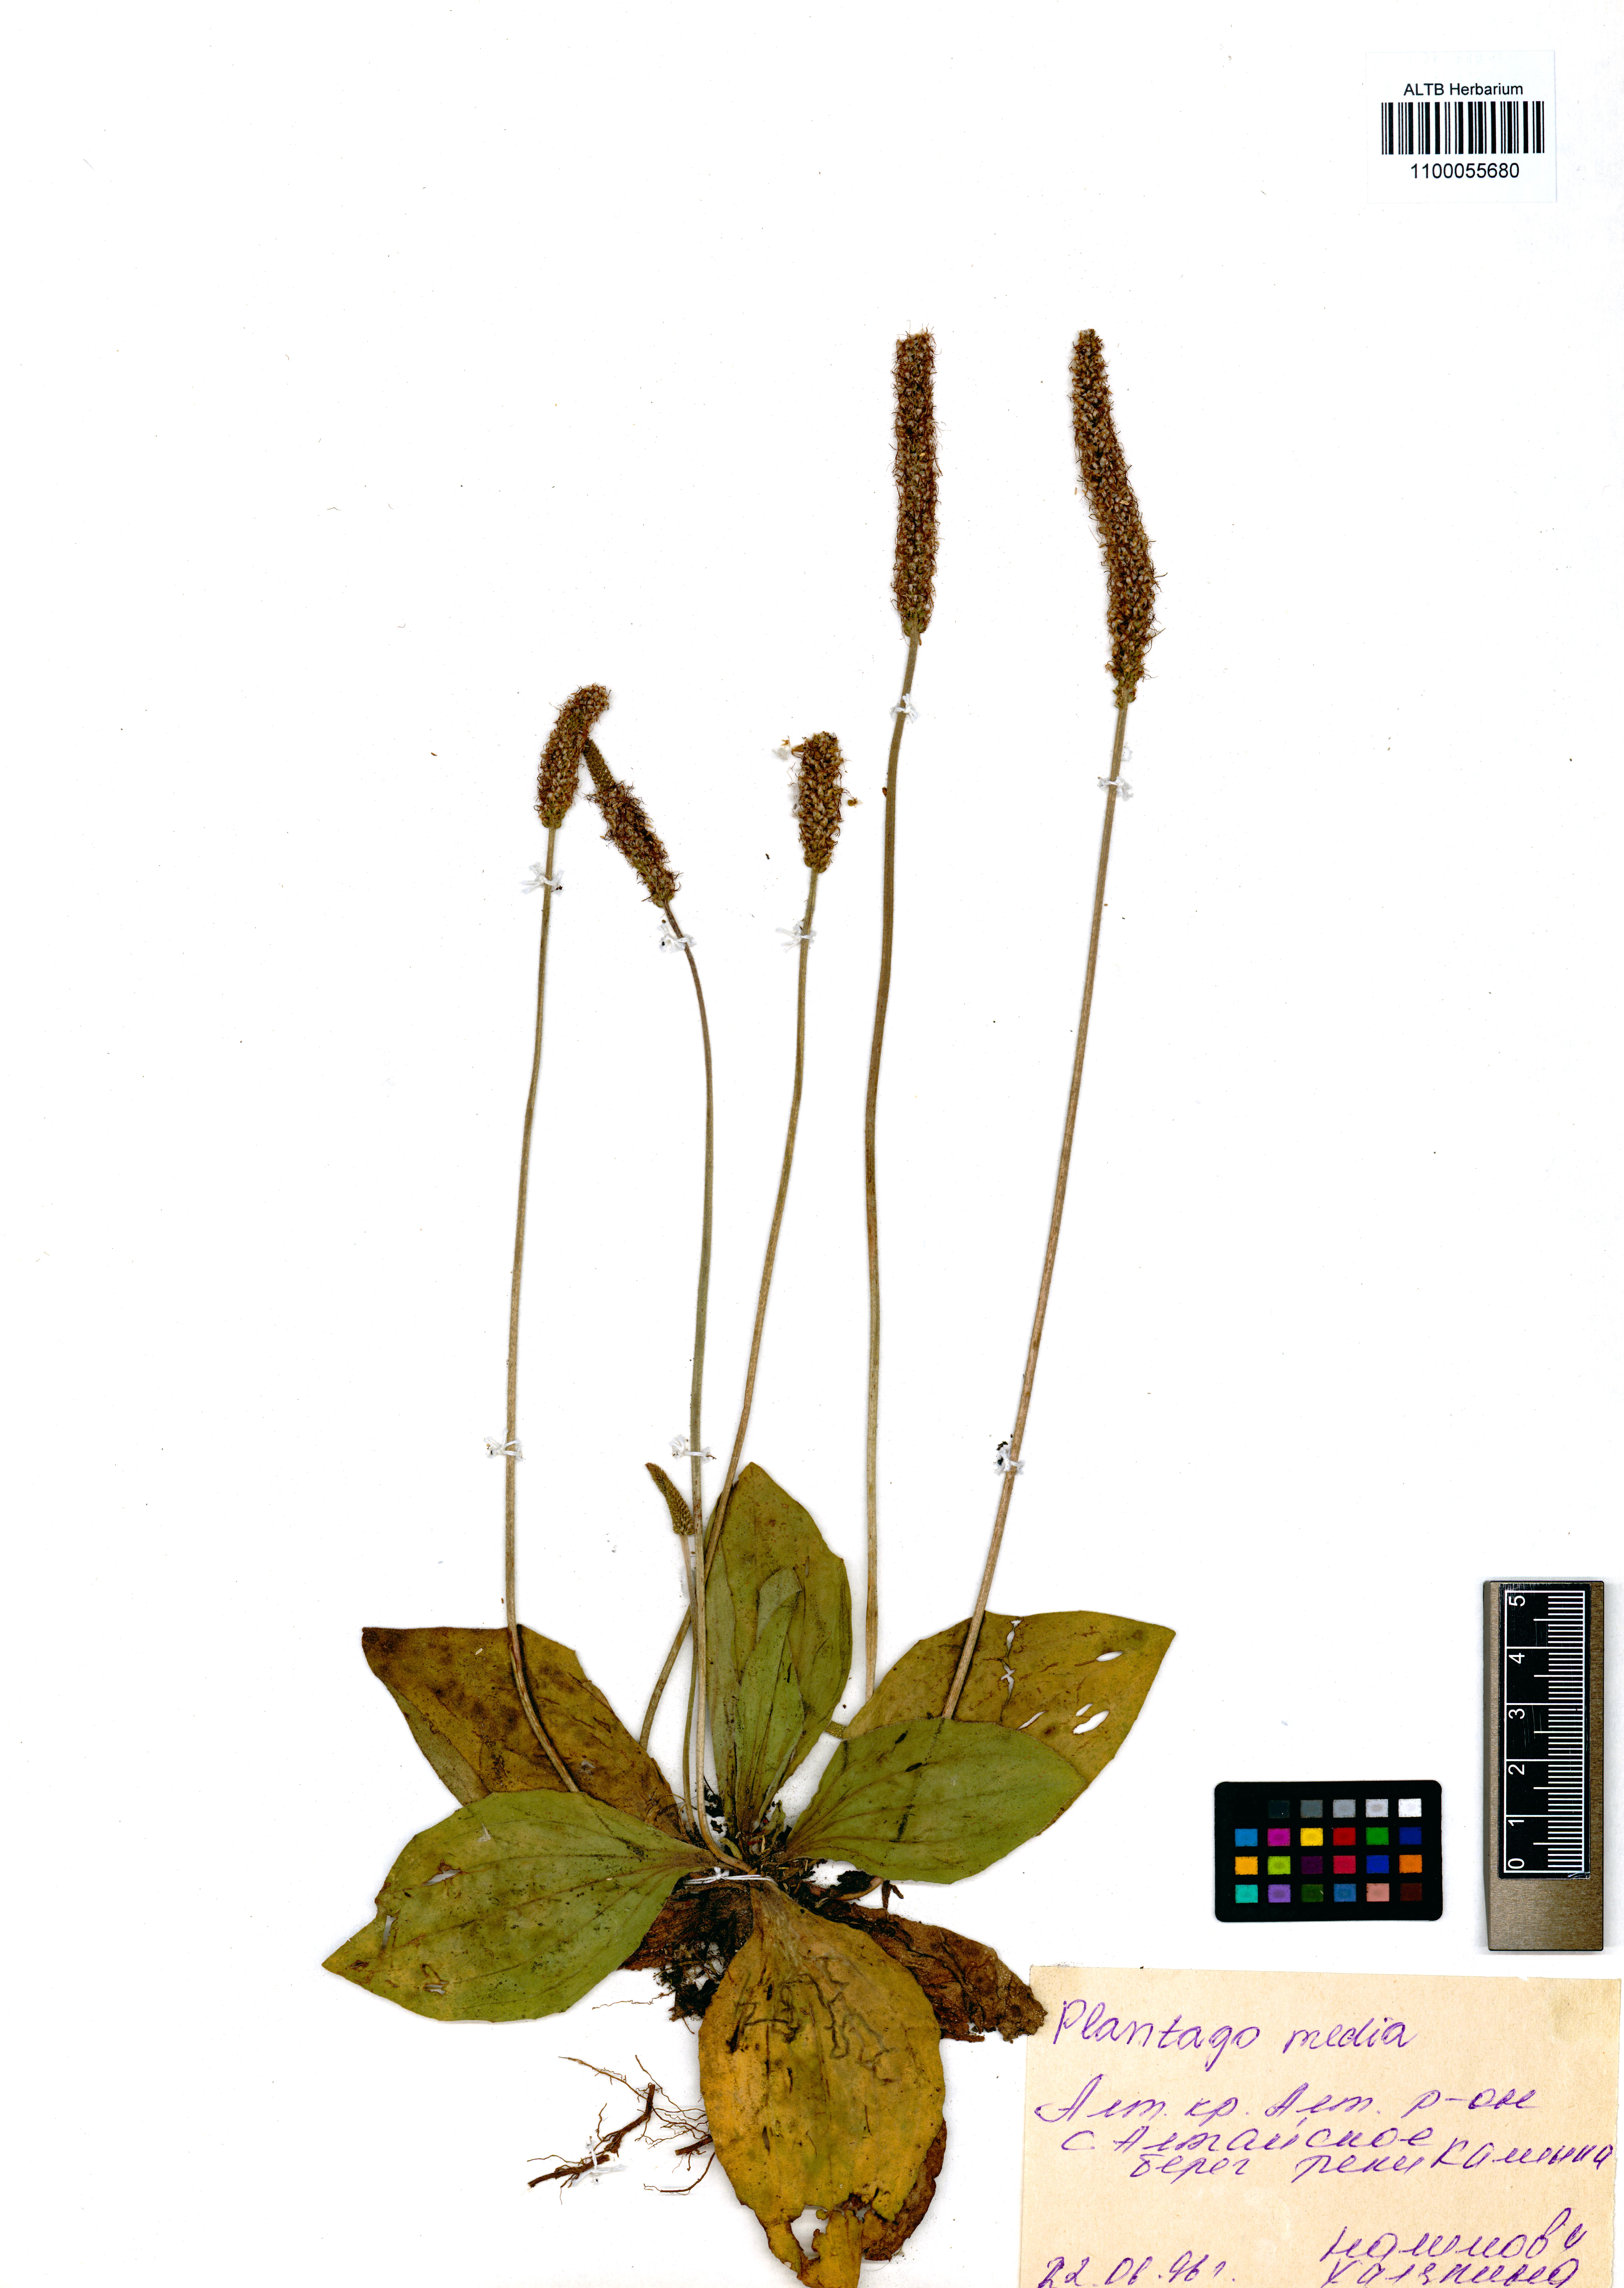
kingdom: Plantae
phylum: Tracheophyta
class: Magnoliopsida
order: Lamiales
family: Plantaginaceae
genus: Plantago
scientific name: Plantago media
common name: Hoary plantain
